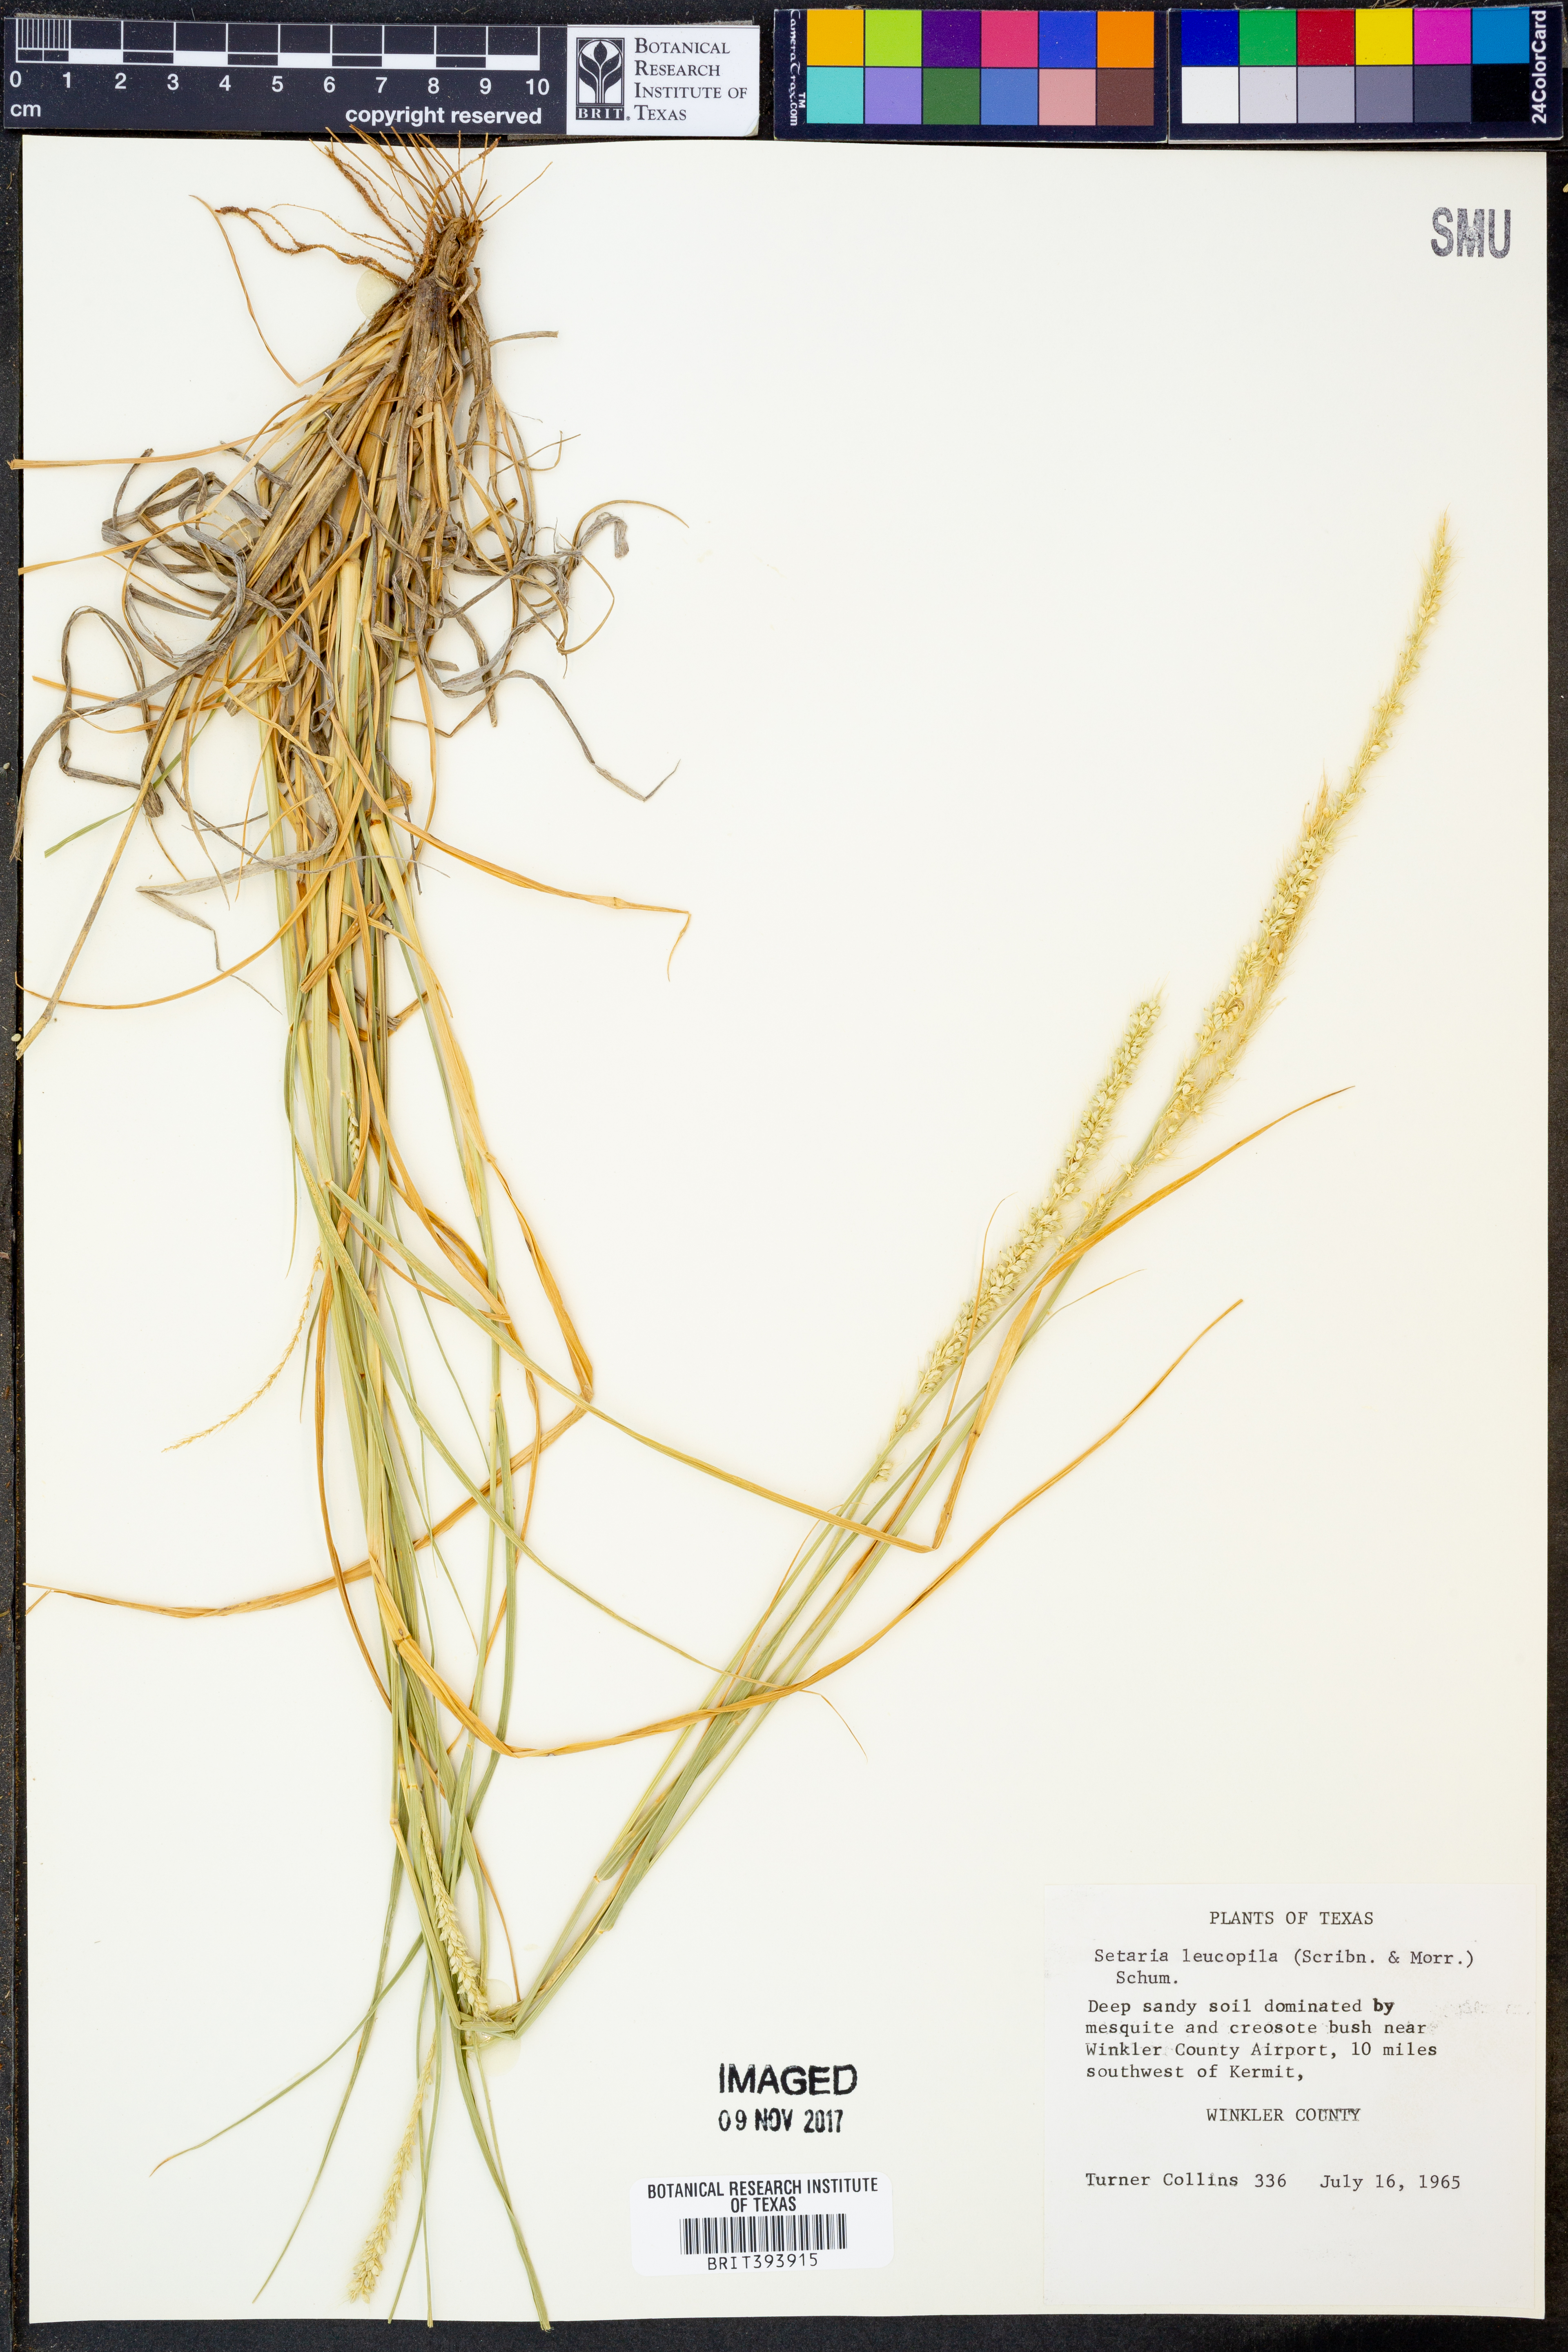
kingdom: Plantae
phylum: Tracheophyta
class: Liliopsida
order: Poales
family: Poaceae
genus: Setaria
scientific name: Setaria leucopila
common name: Plains bristle grass
